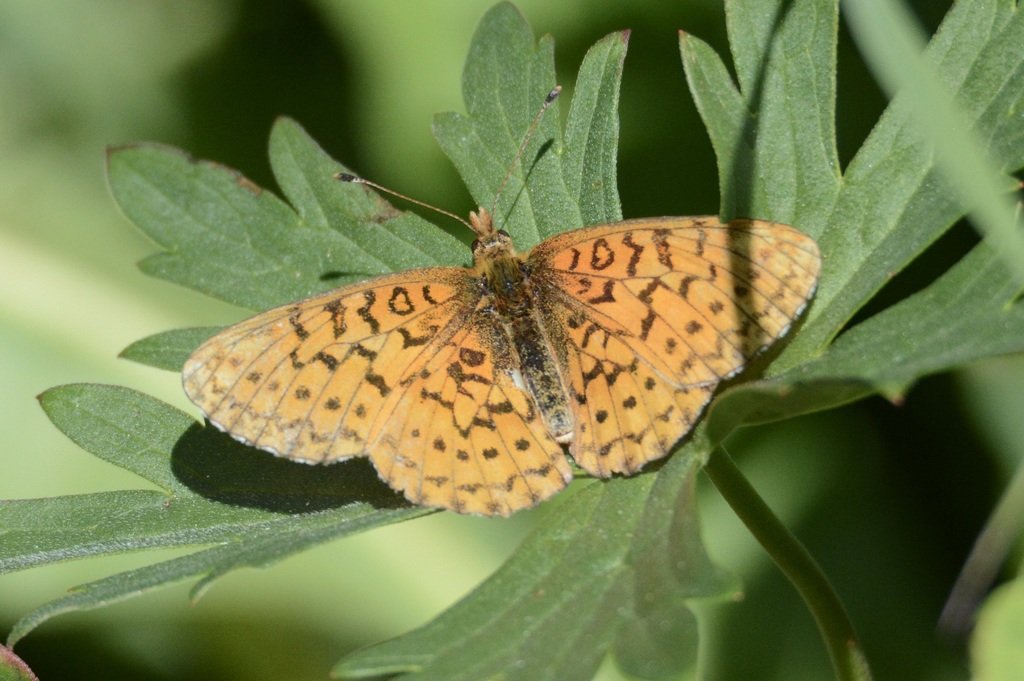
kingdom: Animalia
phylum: Arthropoda
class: Insecta
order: Lepidoptera
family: Nymphalidae
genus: Boloria
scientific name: Boloria kriemhild
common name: Relict Fritillary
